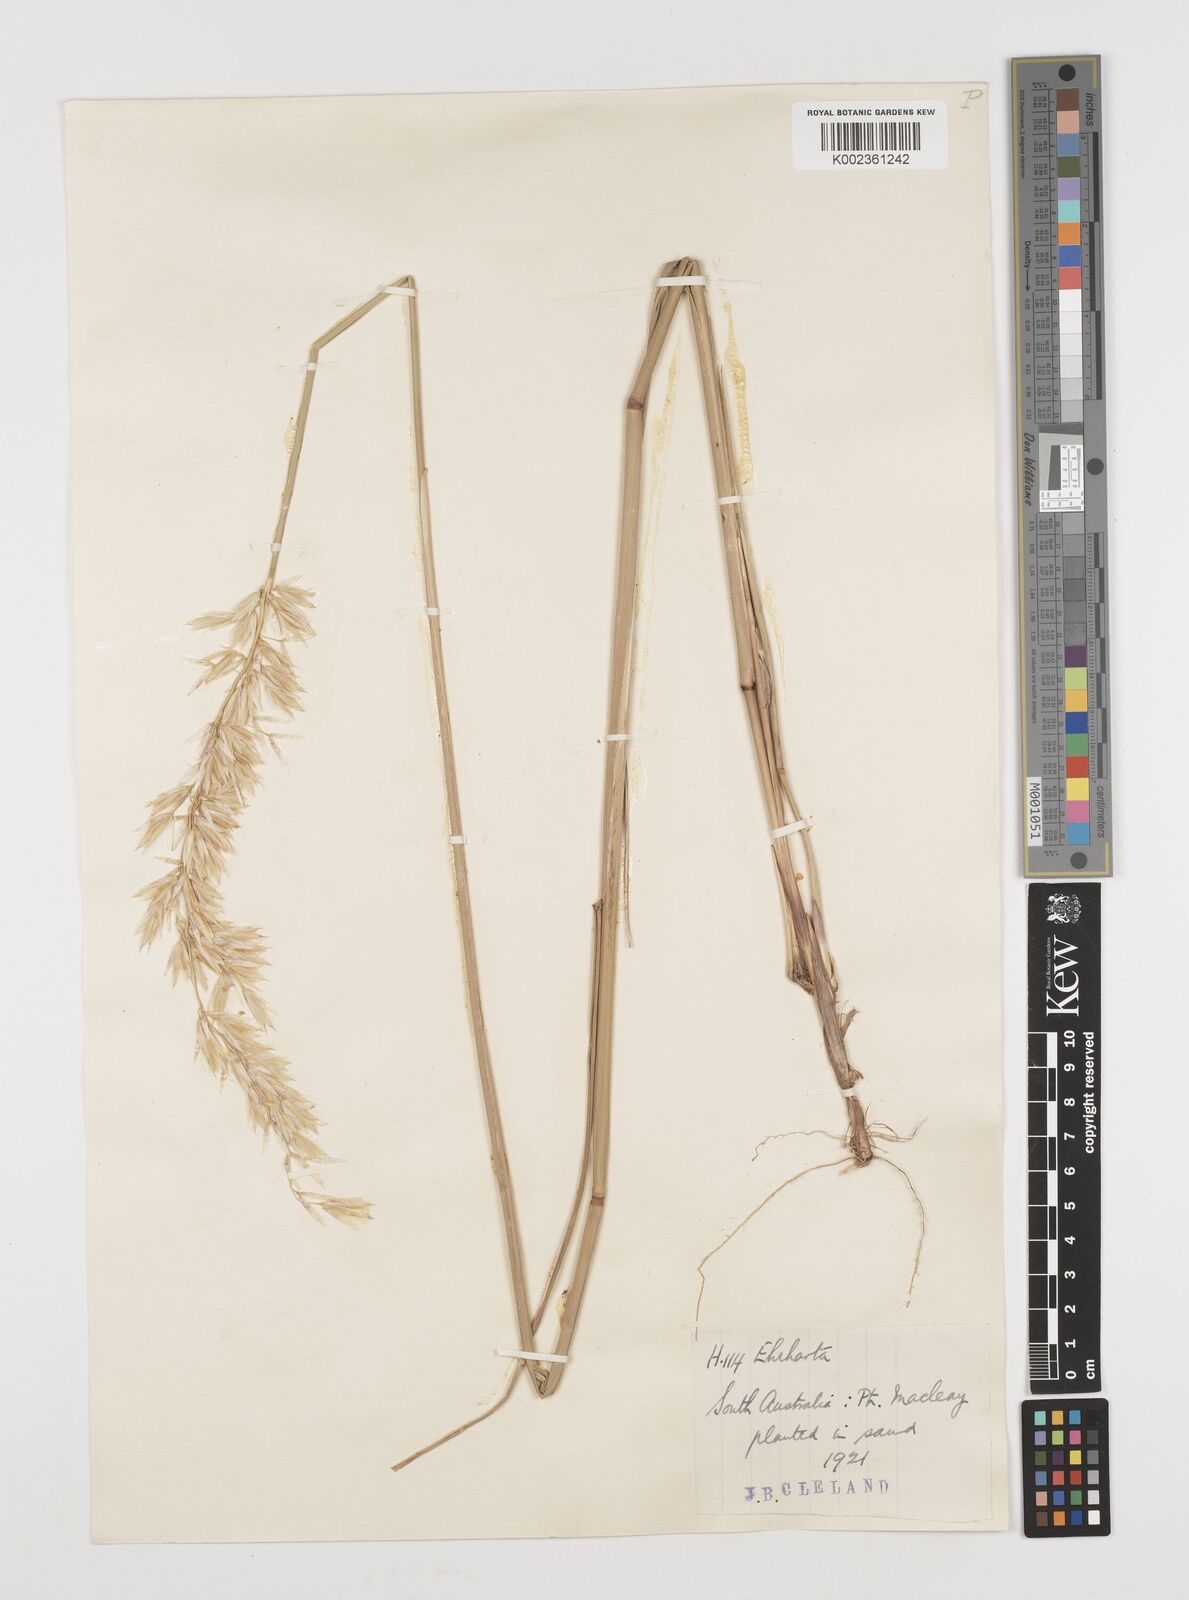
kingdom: Plantae
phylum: Tracheophyta
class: Liliopsida
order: Poales
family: Poaceae
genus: Ehrharta
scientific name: Ehrharta villosa
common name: Pyp grass
